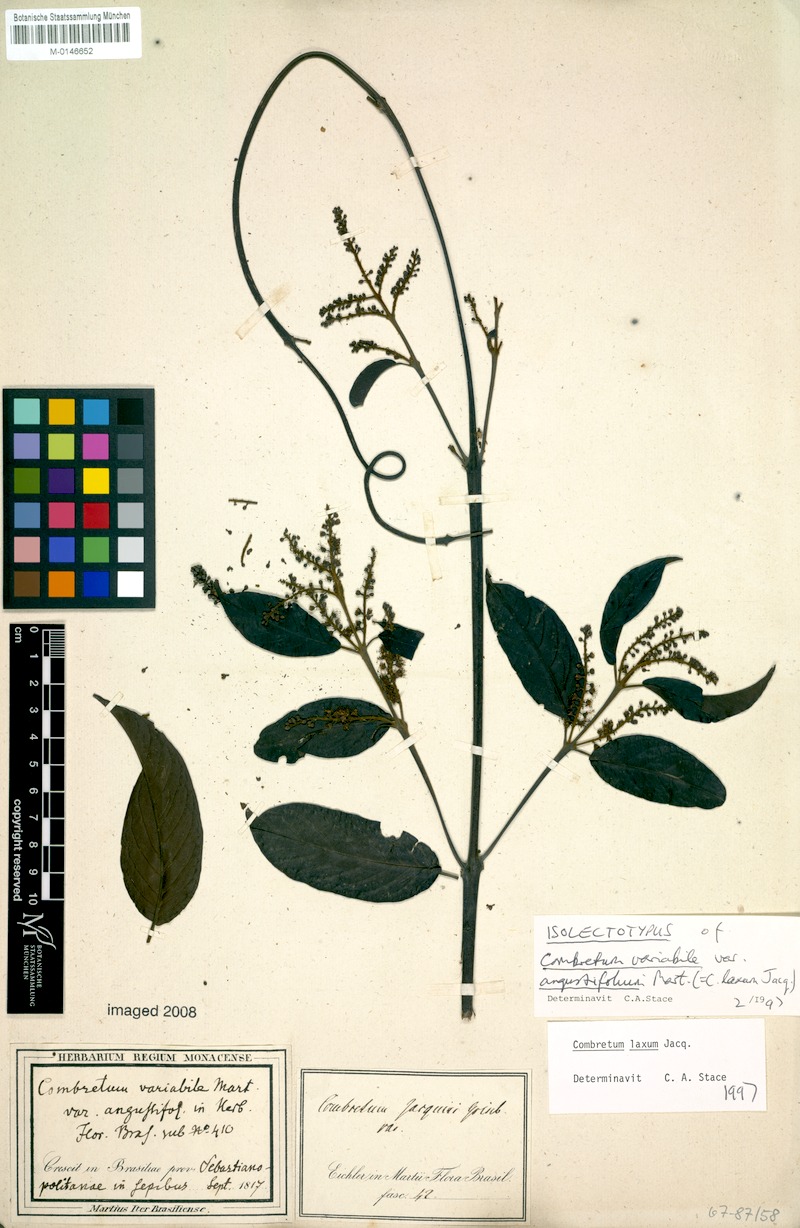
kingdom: Plantae
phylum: Tracheophyta
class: Magnoliopsida
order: Myrtales
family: Combretaceae
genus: Combretum
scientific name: Combretum laxum
